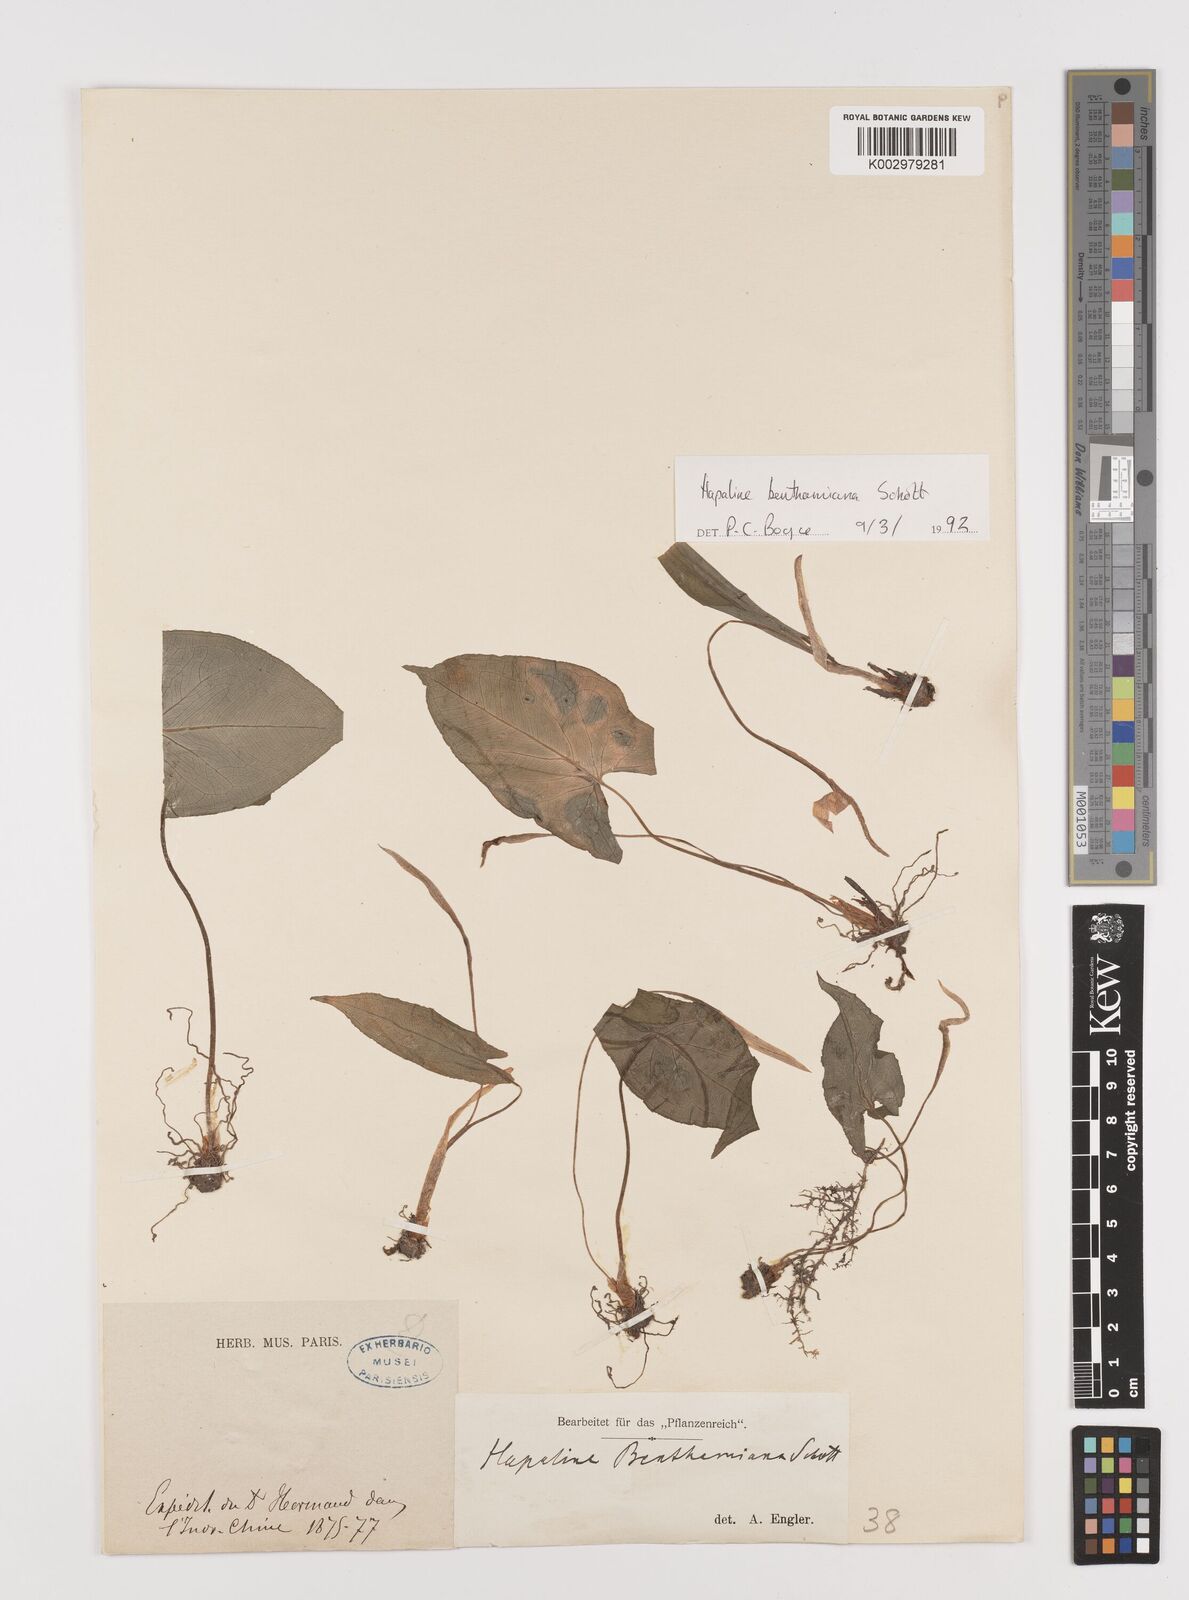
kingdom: Plantae
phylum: Tracheophyta
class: Liliopsida
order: Alismatales
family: Araceae
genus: Hapaline
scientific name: Hapaline benthamiana
